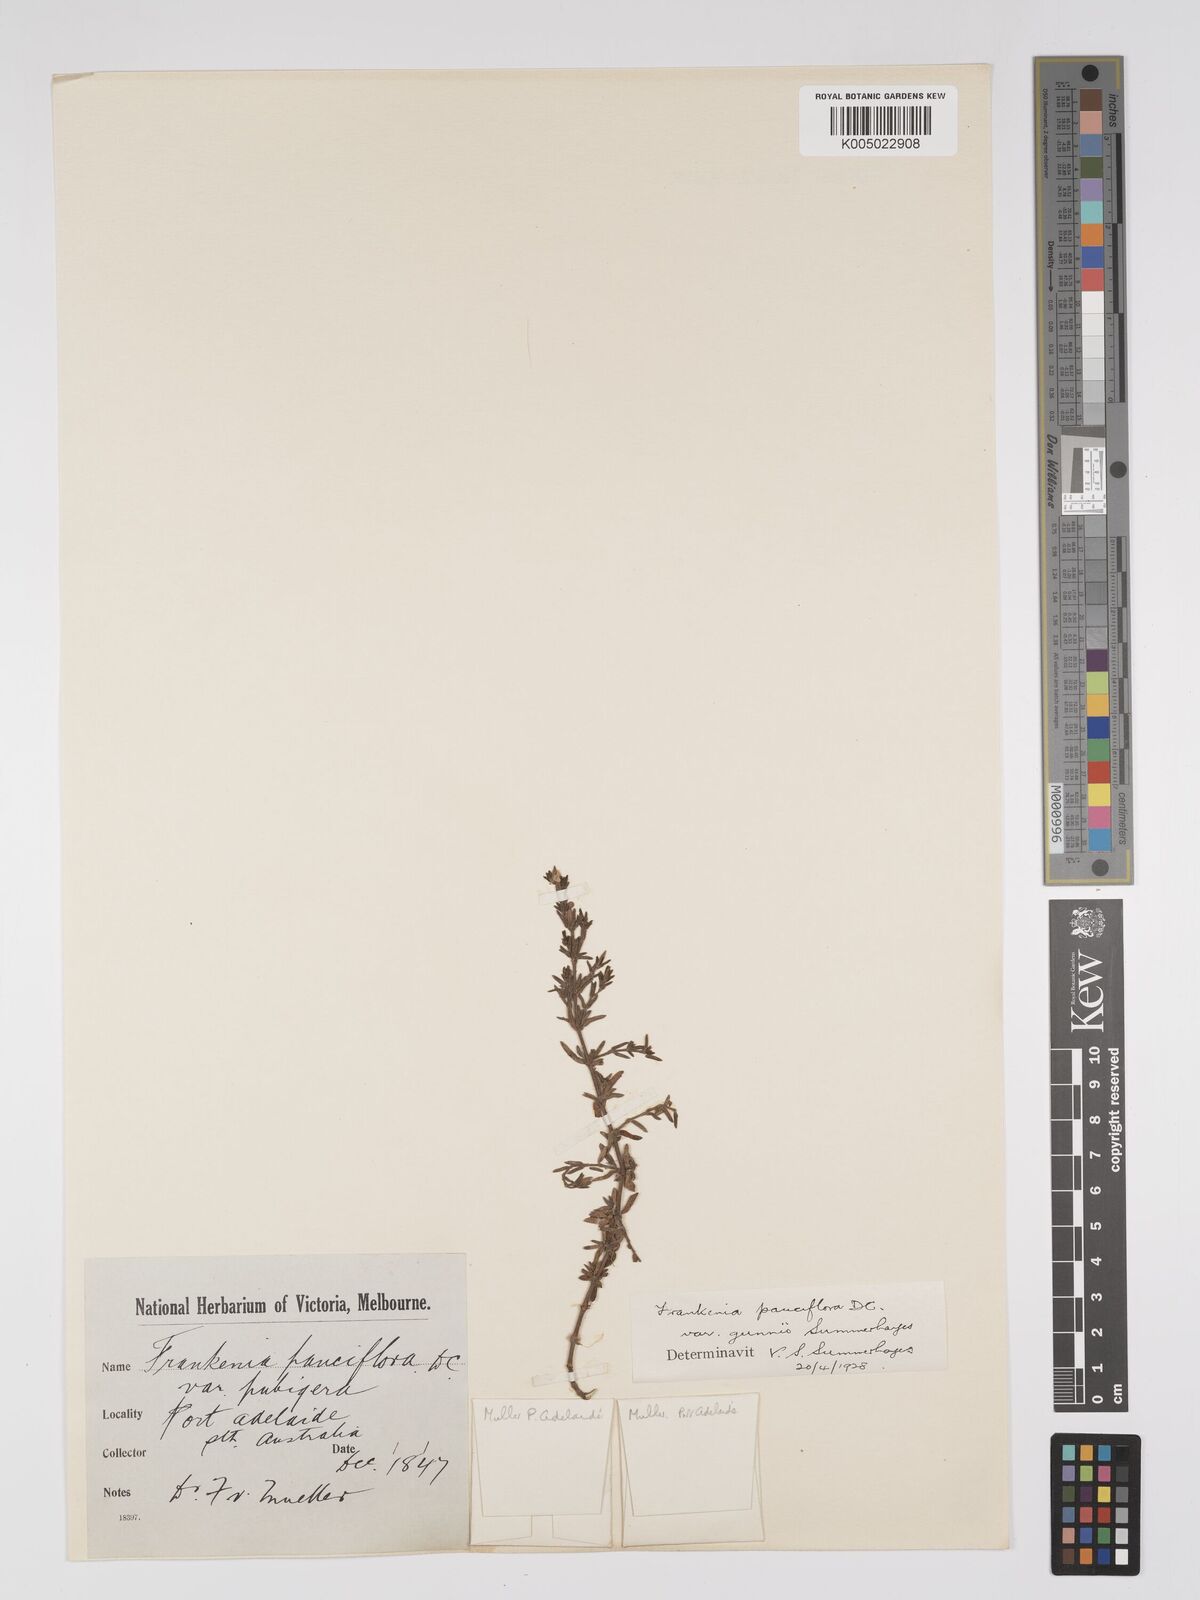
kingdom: Plantae
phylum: Tracheophyta
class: Magnoliopsida
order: Caryophyllales
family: Frankeniaceae
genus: Frankenia
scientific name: Frankenia pauciflora
